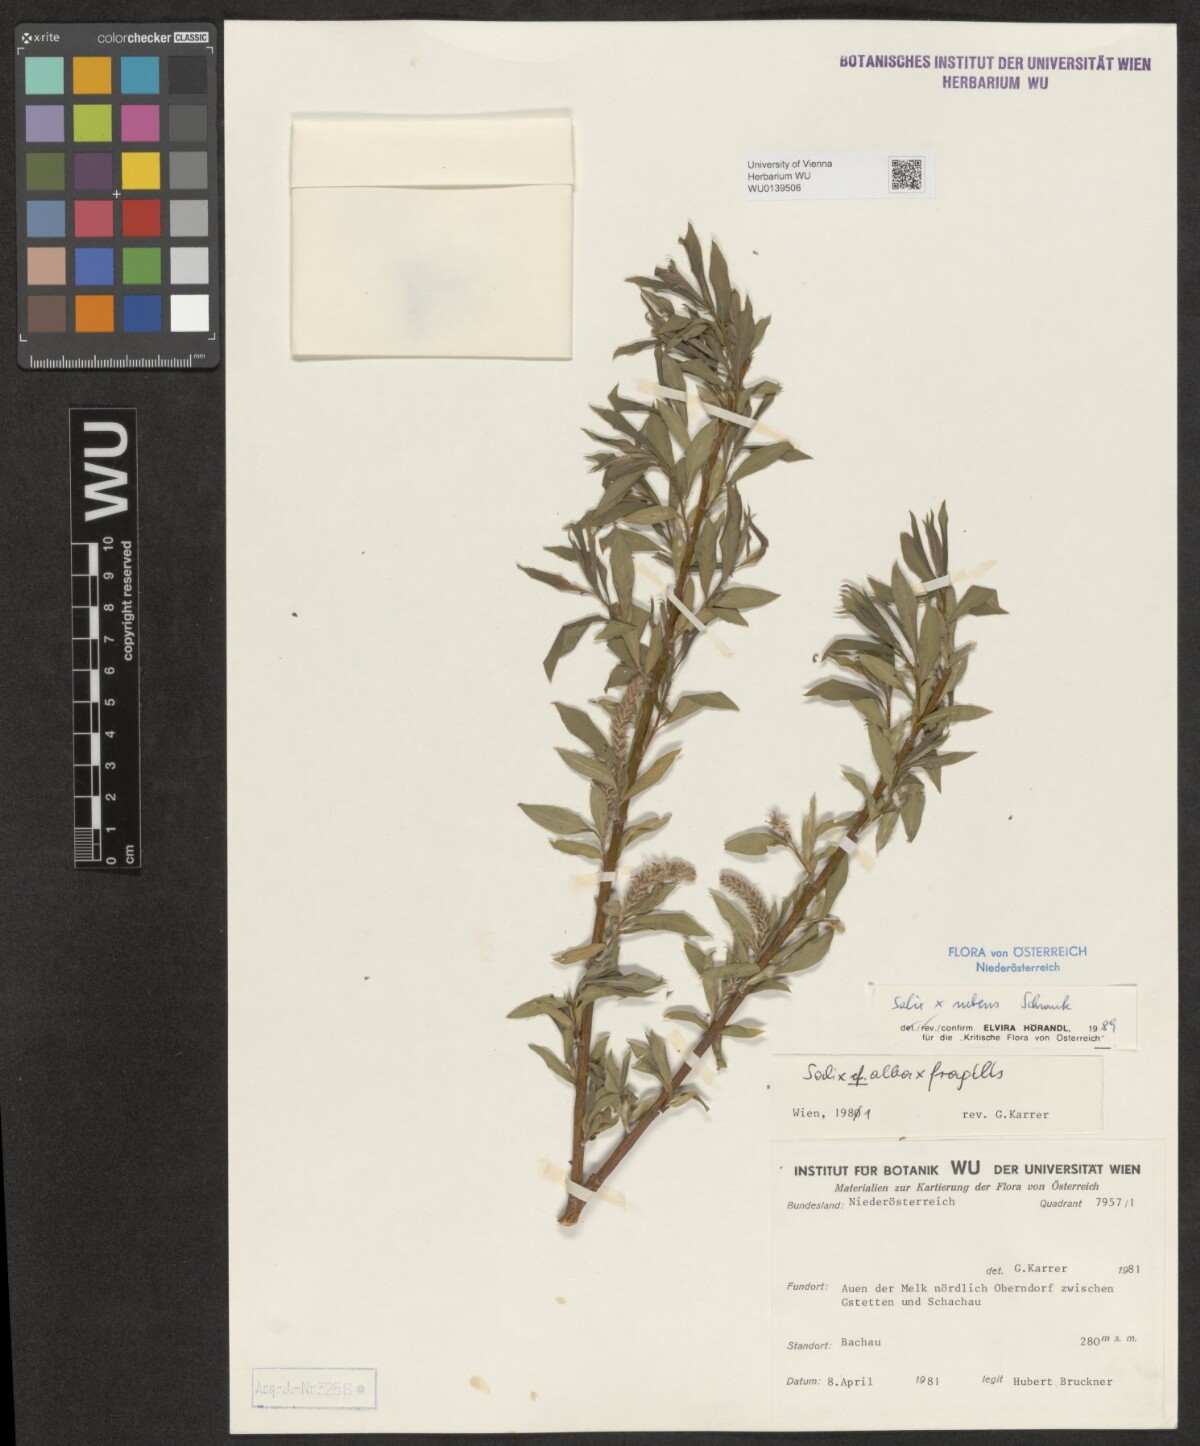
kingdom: Plantae
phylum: Tracheophyta
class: Magnoliopsida
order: Malpighiales
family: Salicaceae
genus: Salix
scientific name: Salix rubens
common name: Hybrid crack willow
